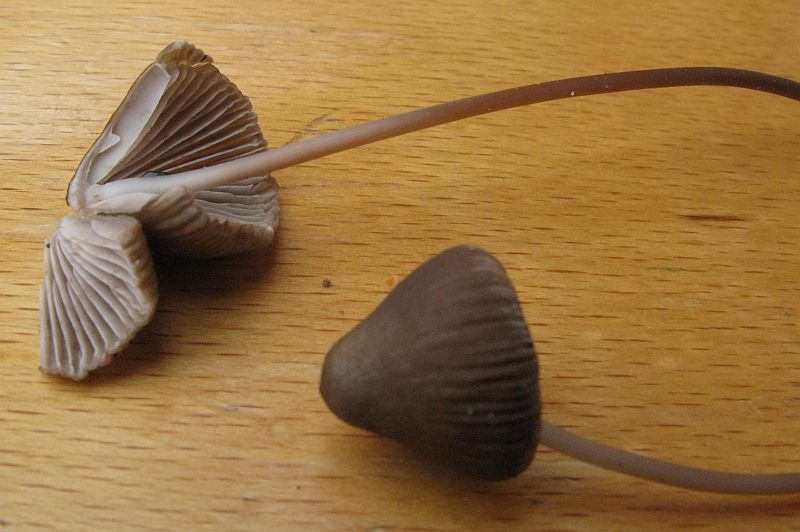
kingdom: Fungi
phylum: Basidiomycota
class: Agaricomycetes
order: Agaricales
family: Mycenaceae
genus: Mycena
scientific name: Mycena maculata
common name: rødplettet huesvamp
